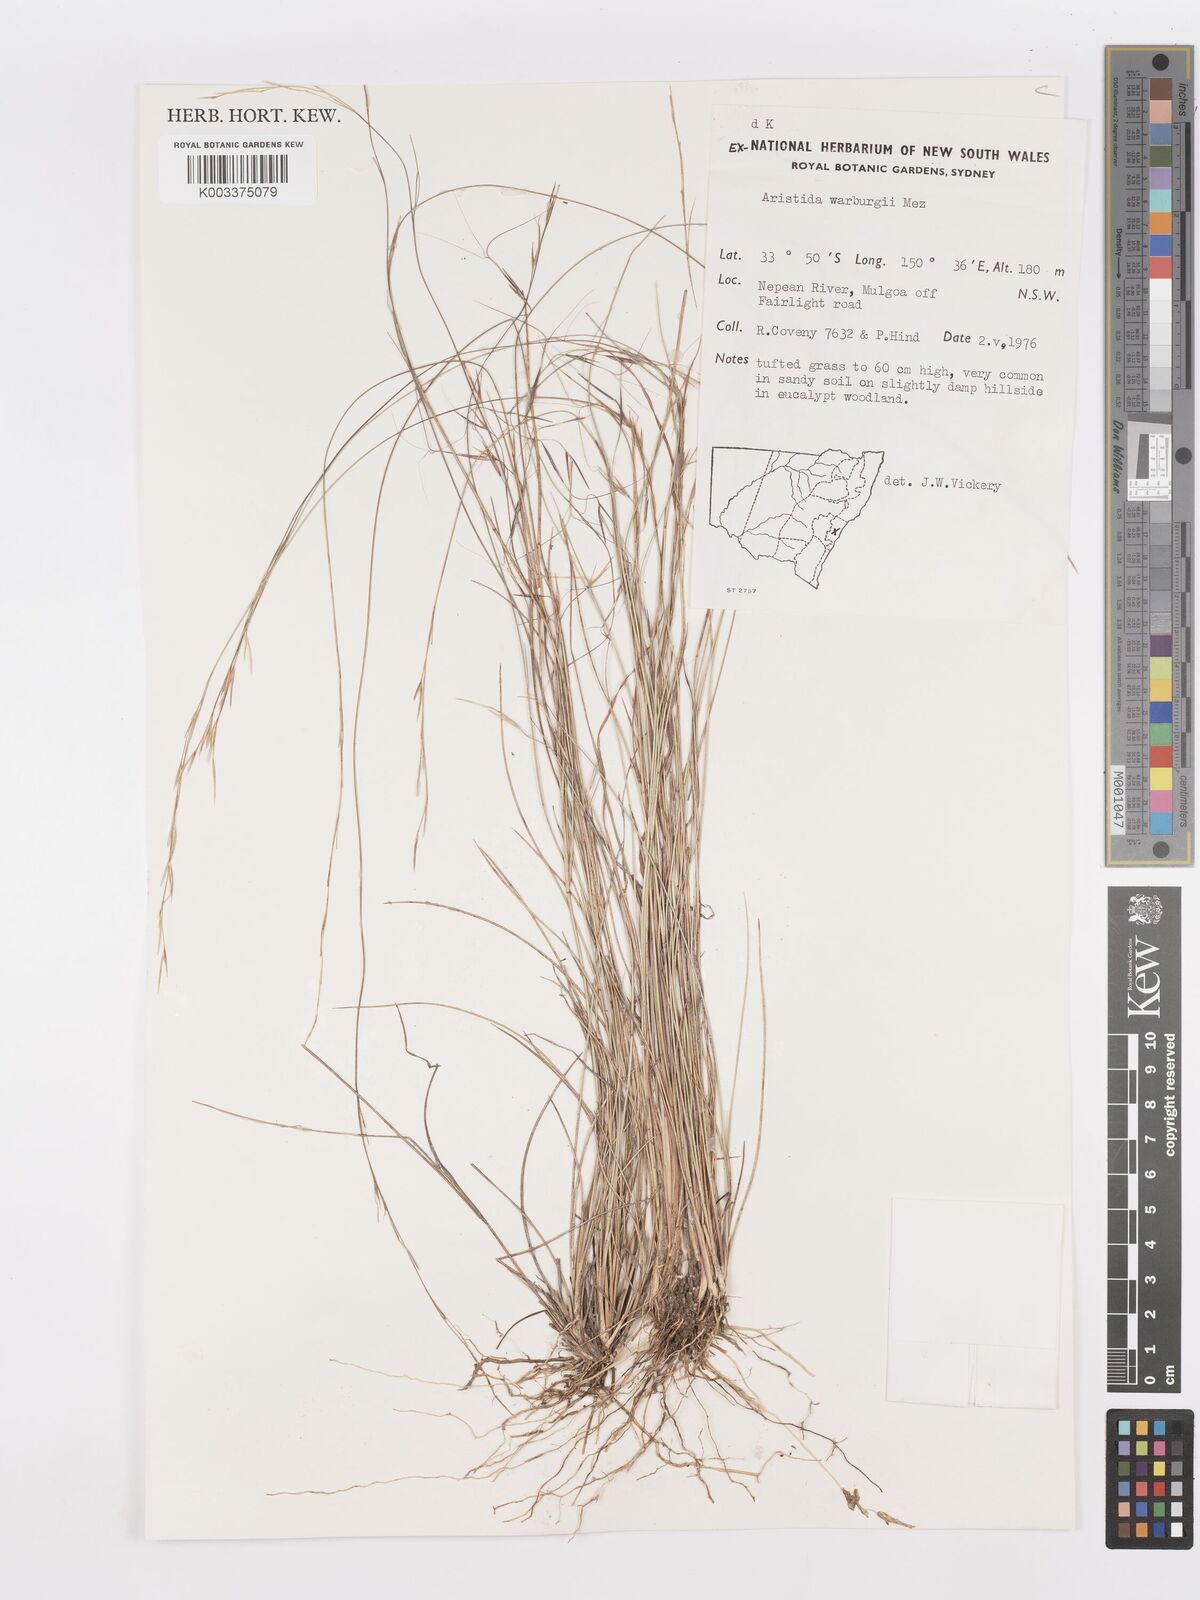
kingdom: Plantae
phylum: Tracheophyta
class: Liliopsida
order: Poales
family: Poaceae
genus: Aristida
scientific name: Aristida warburgii
